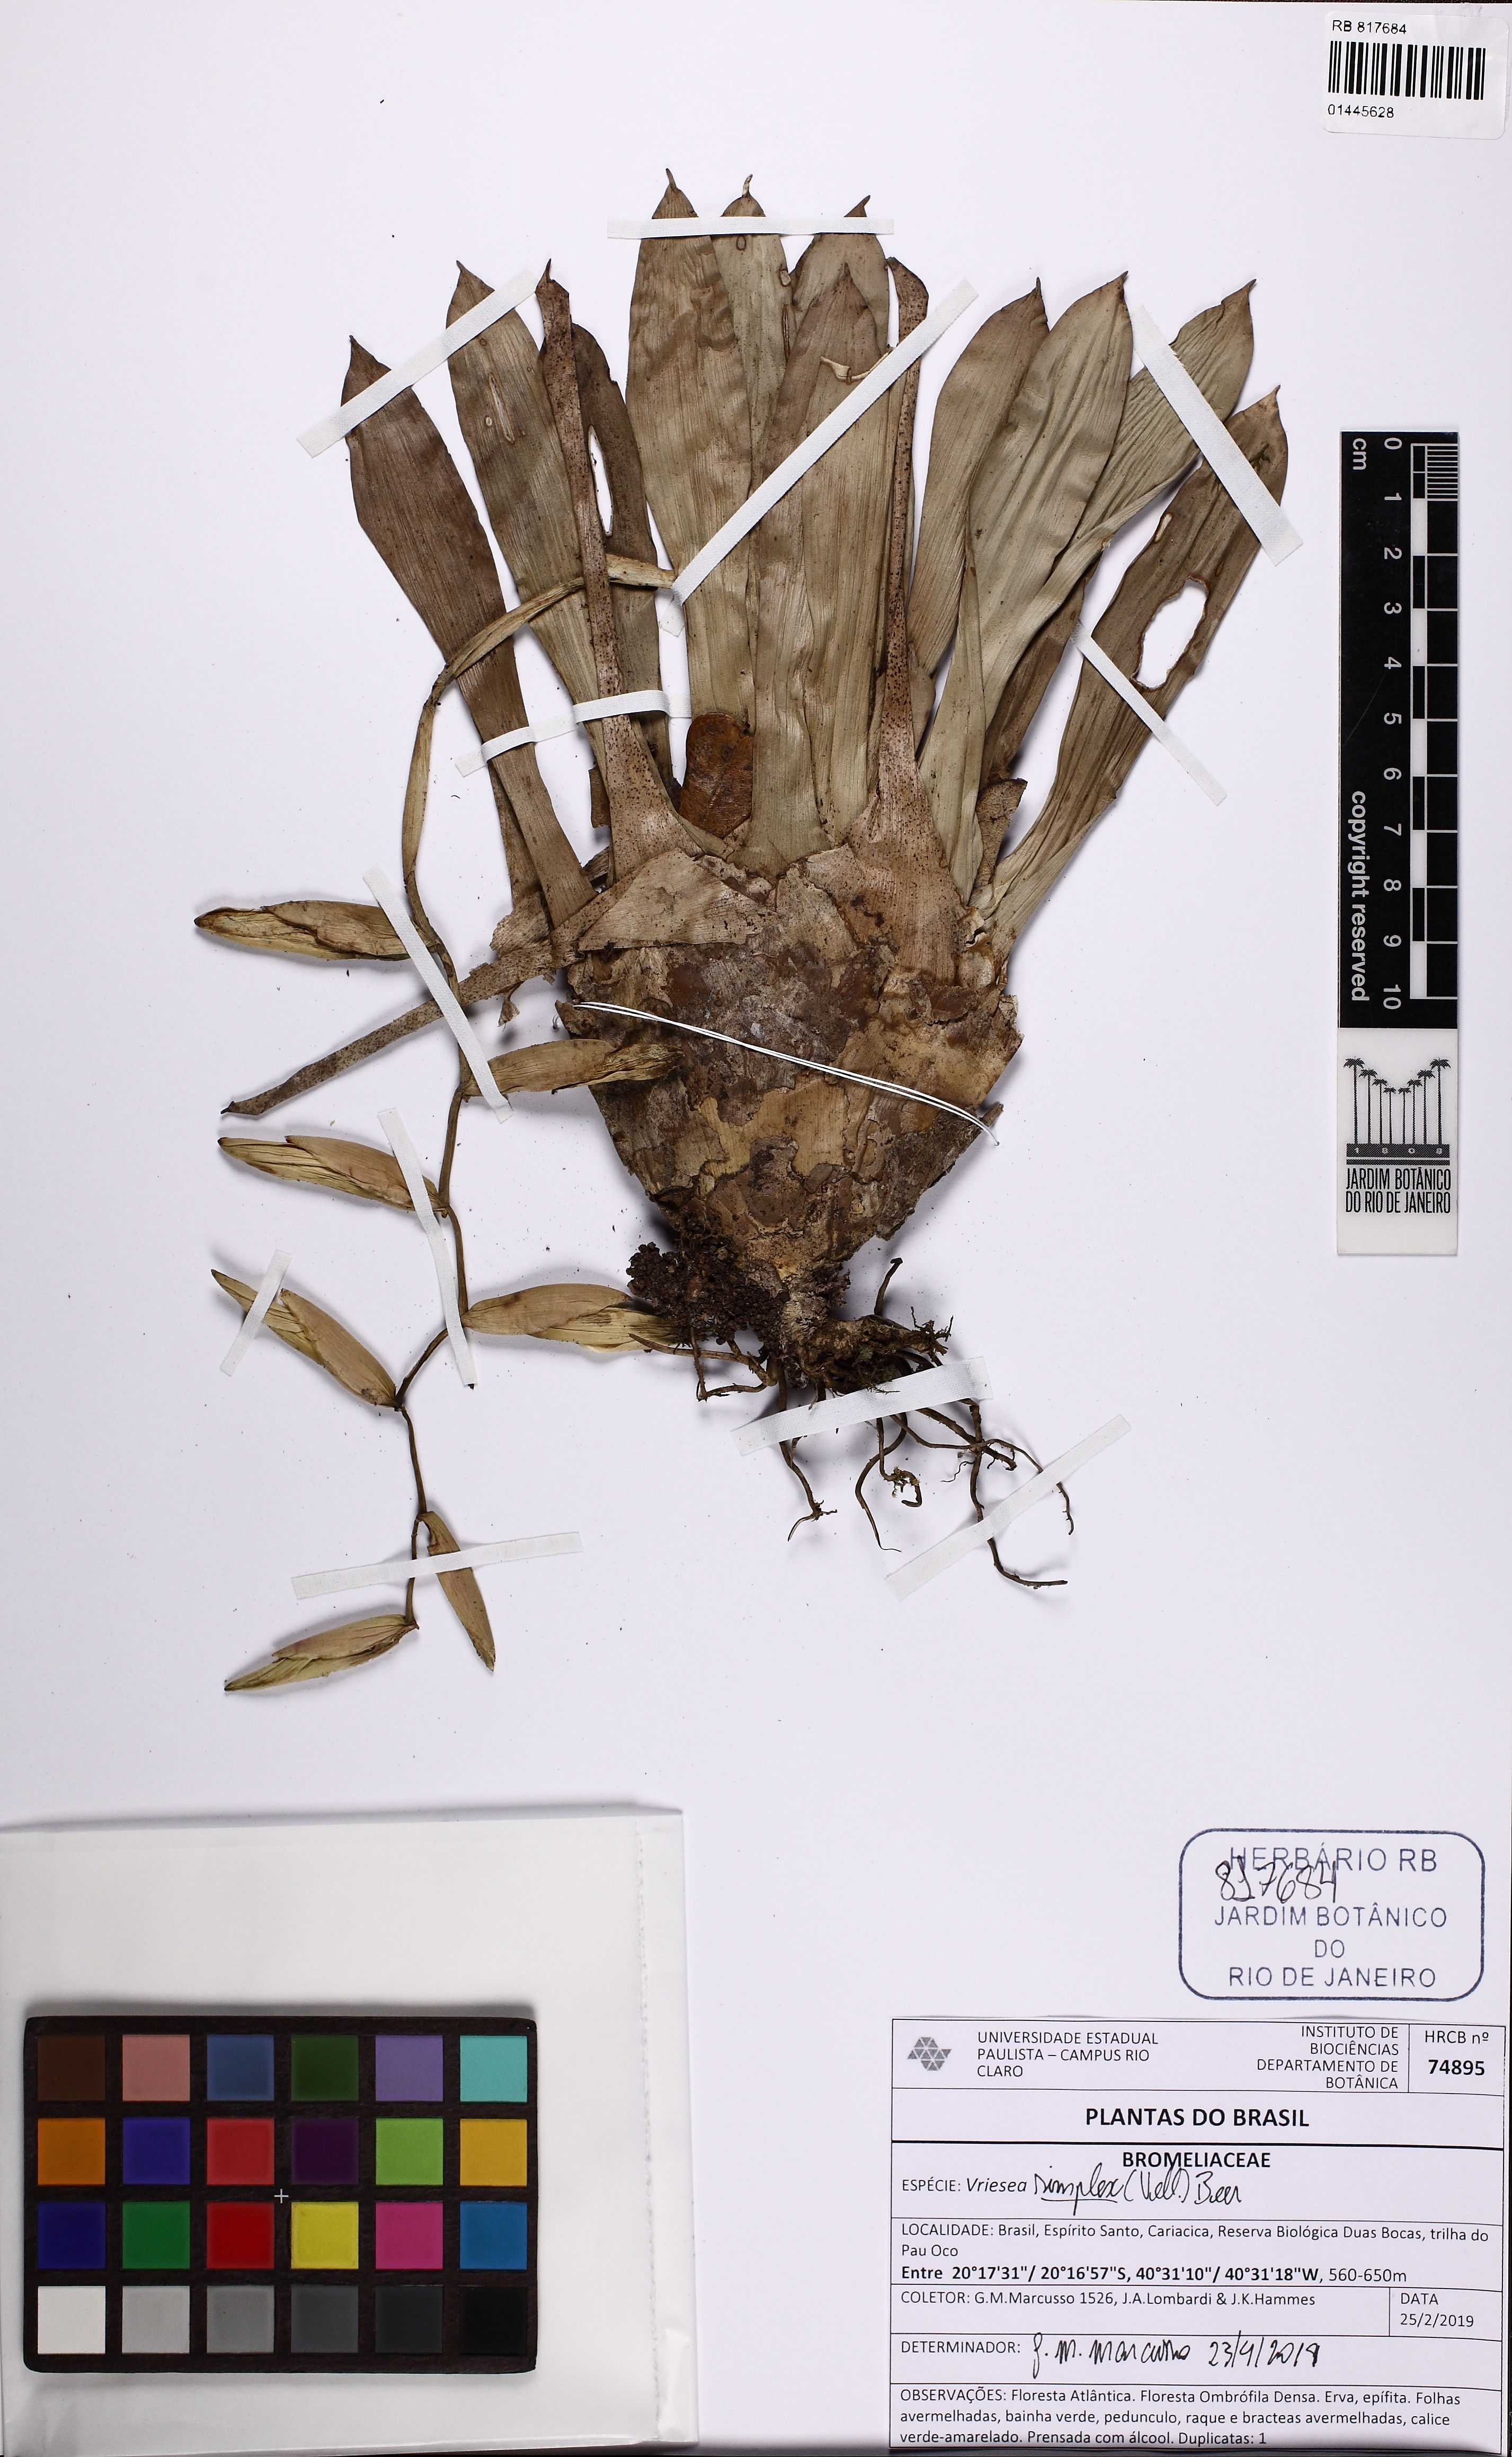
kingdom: Plantae
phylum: Tracheophyta
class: Liliopsida
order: Poales
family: Bromeliaceae
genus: Vriesea
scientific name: Vriesea simplex
